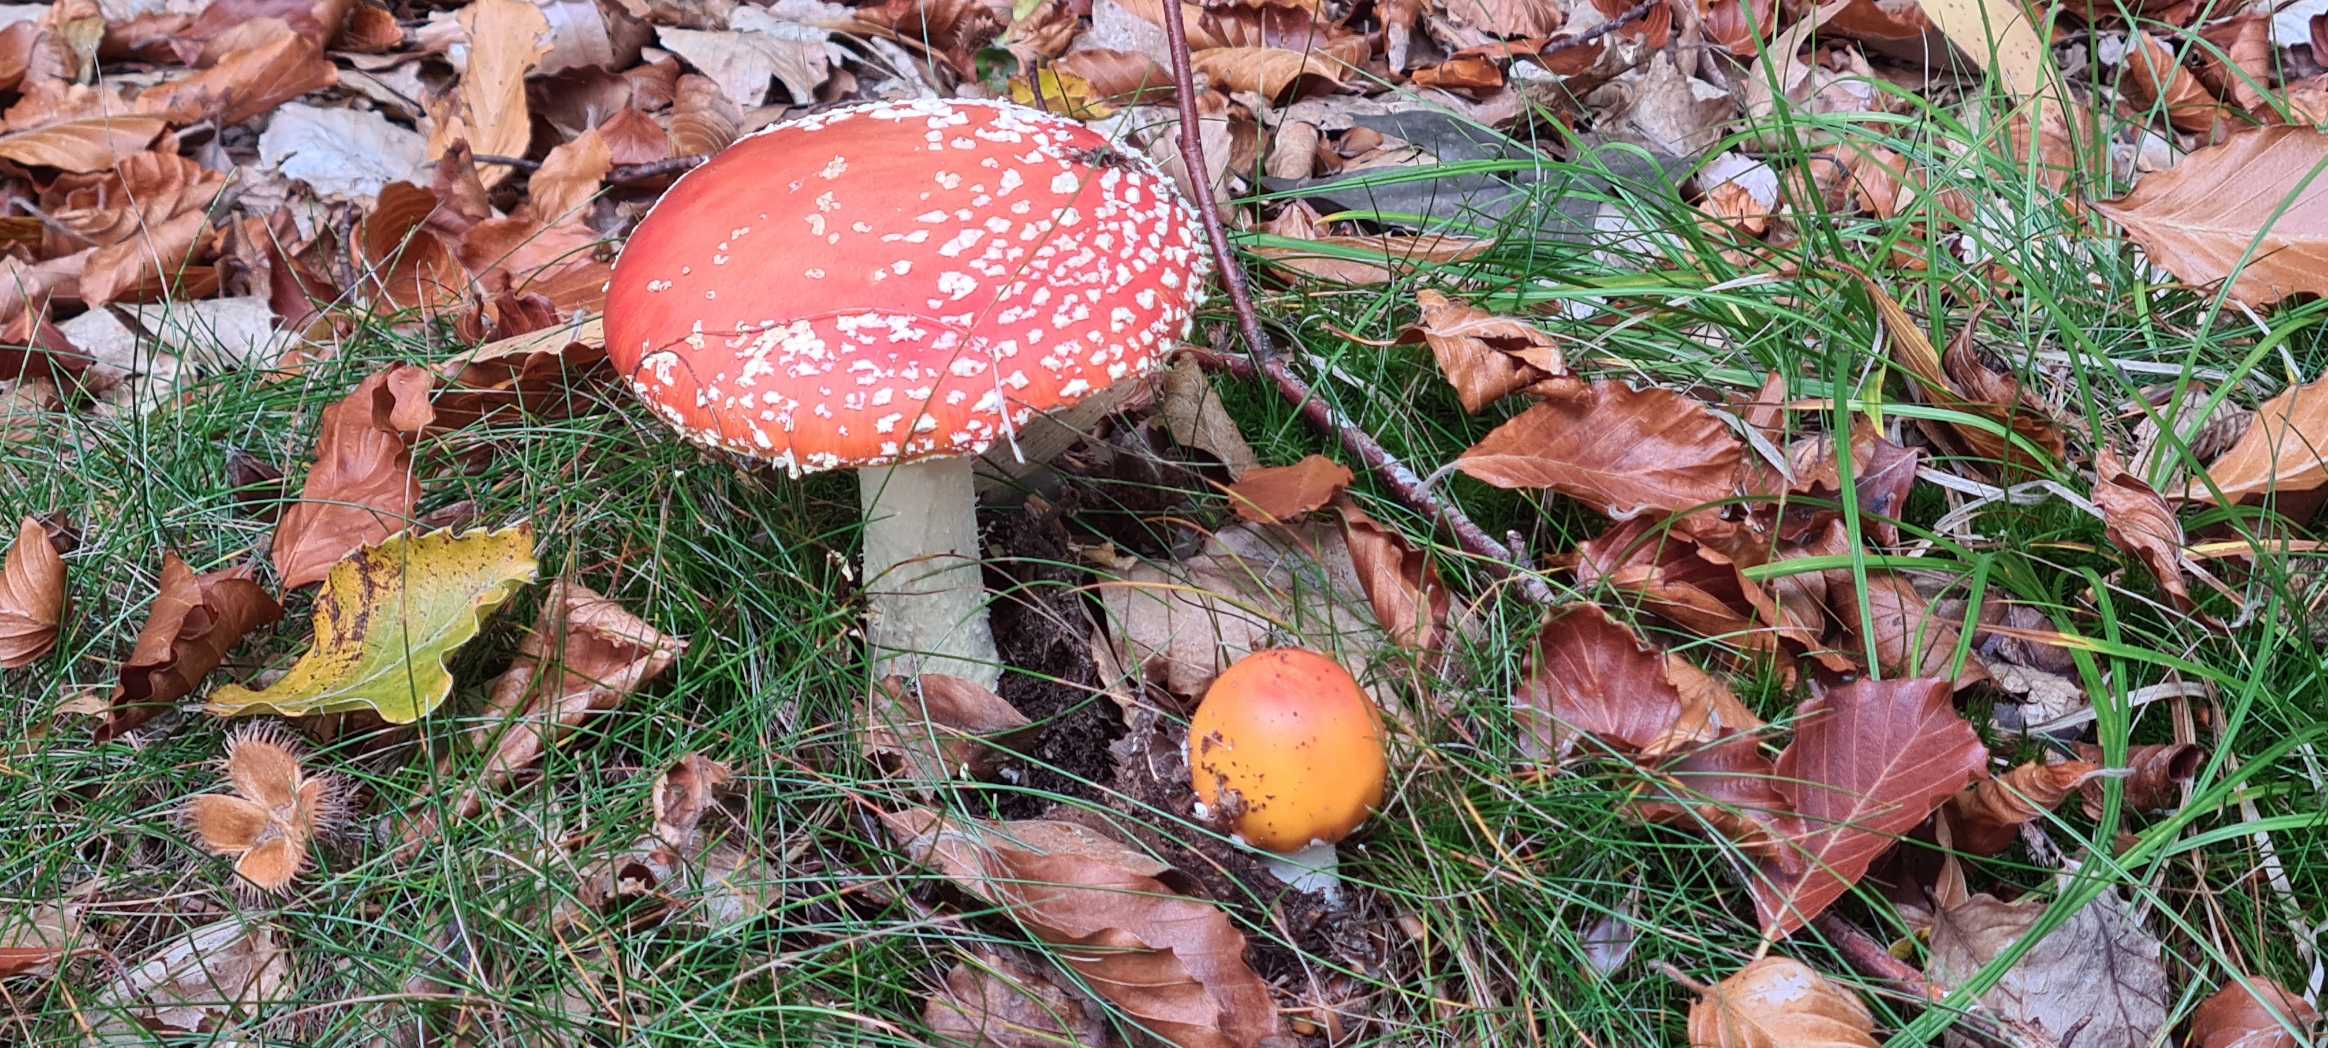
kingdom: Fungi
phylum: Basidiomycota
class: Agaricomycetes
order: Agaricales
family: Amanitaceae
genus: Amanita
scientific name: Amanita muscaria
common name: Rød fluesvamp
